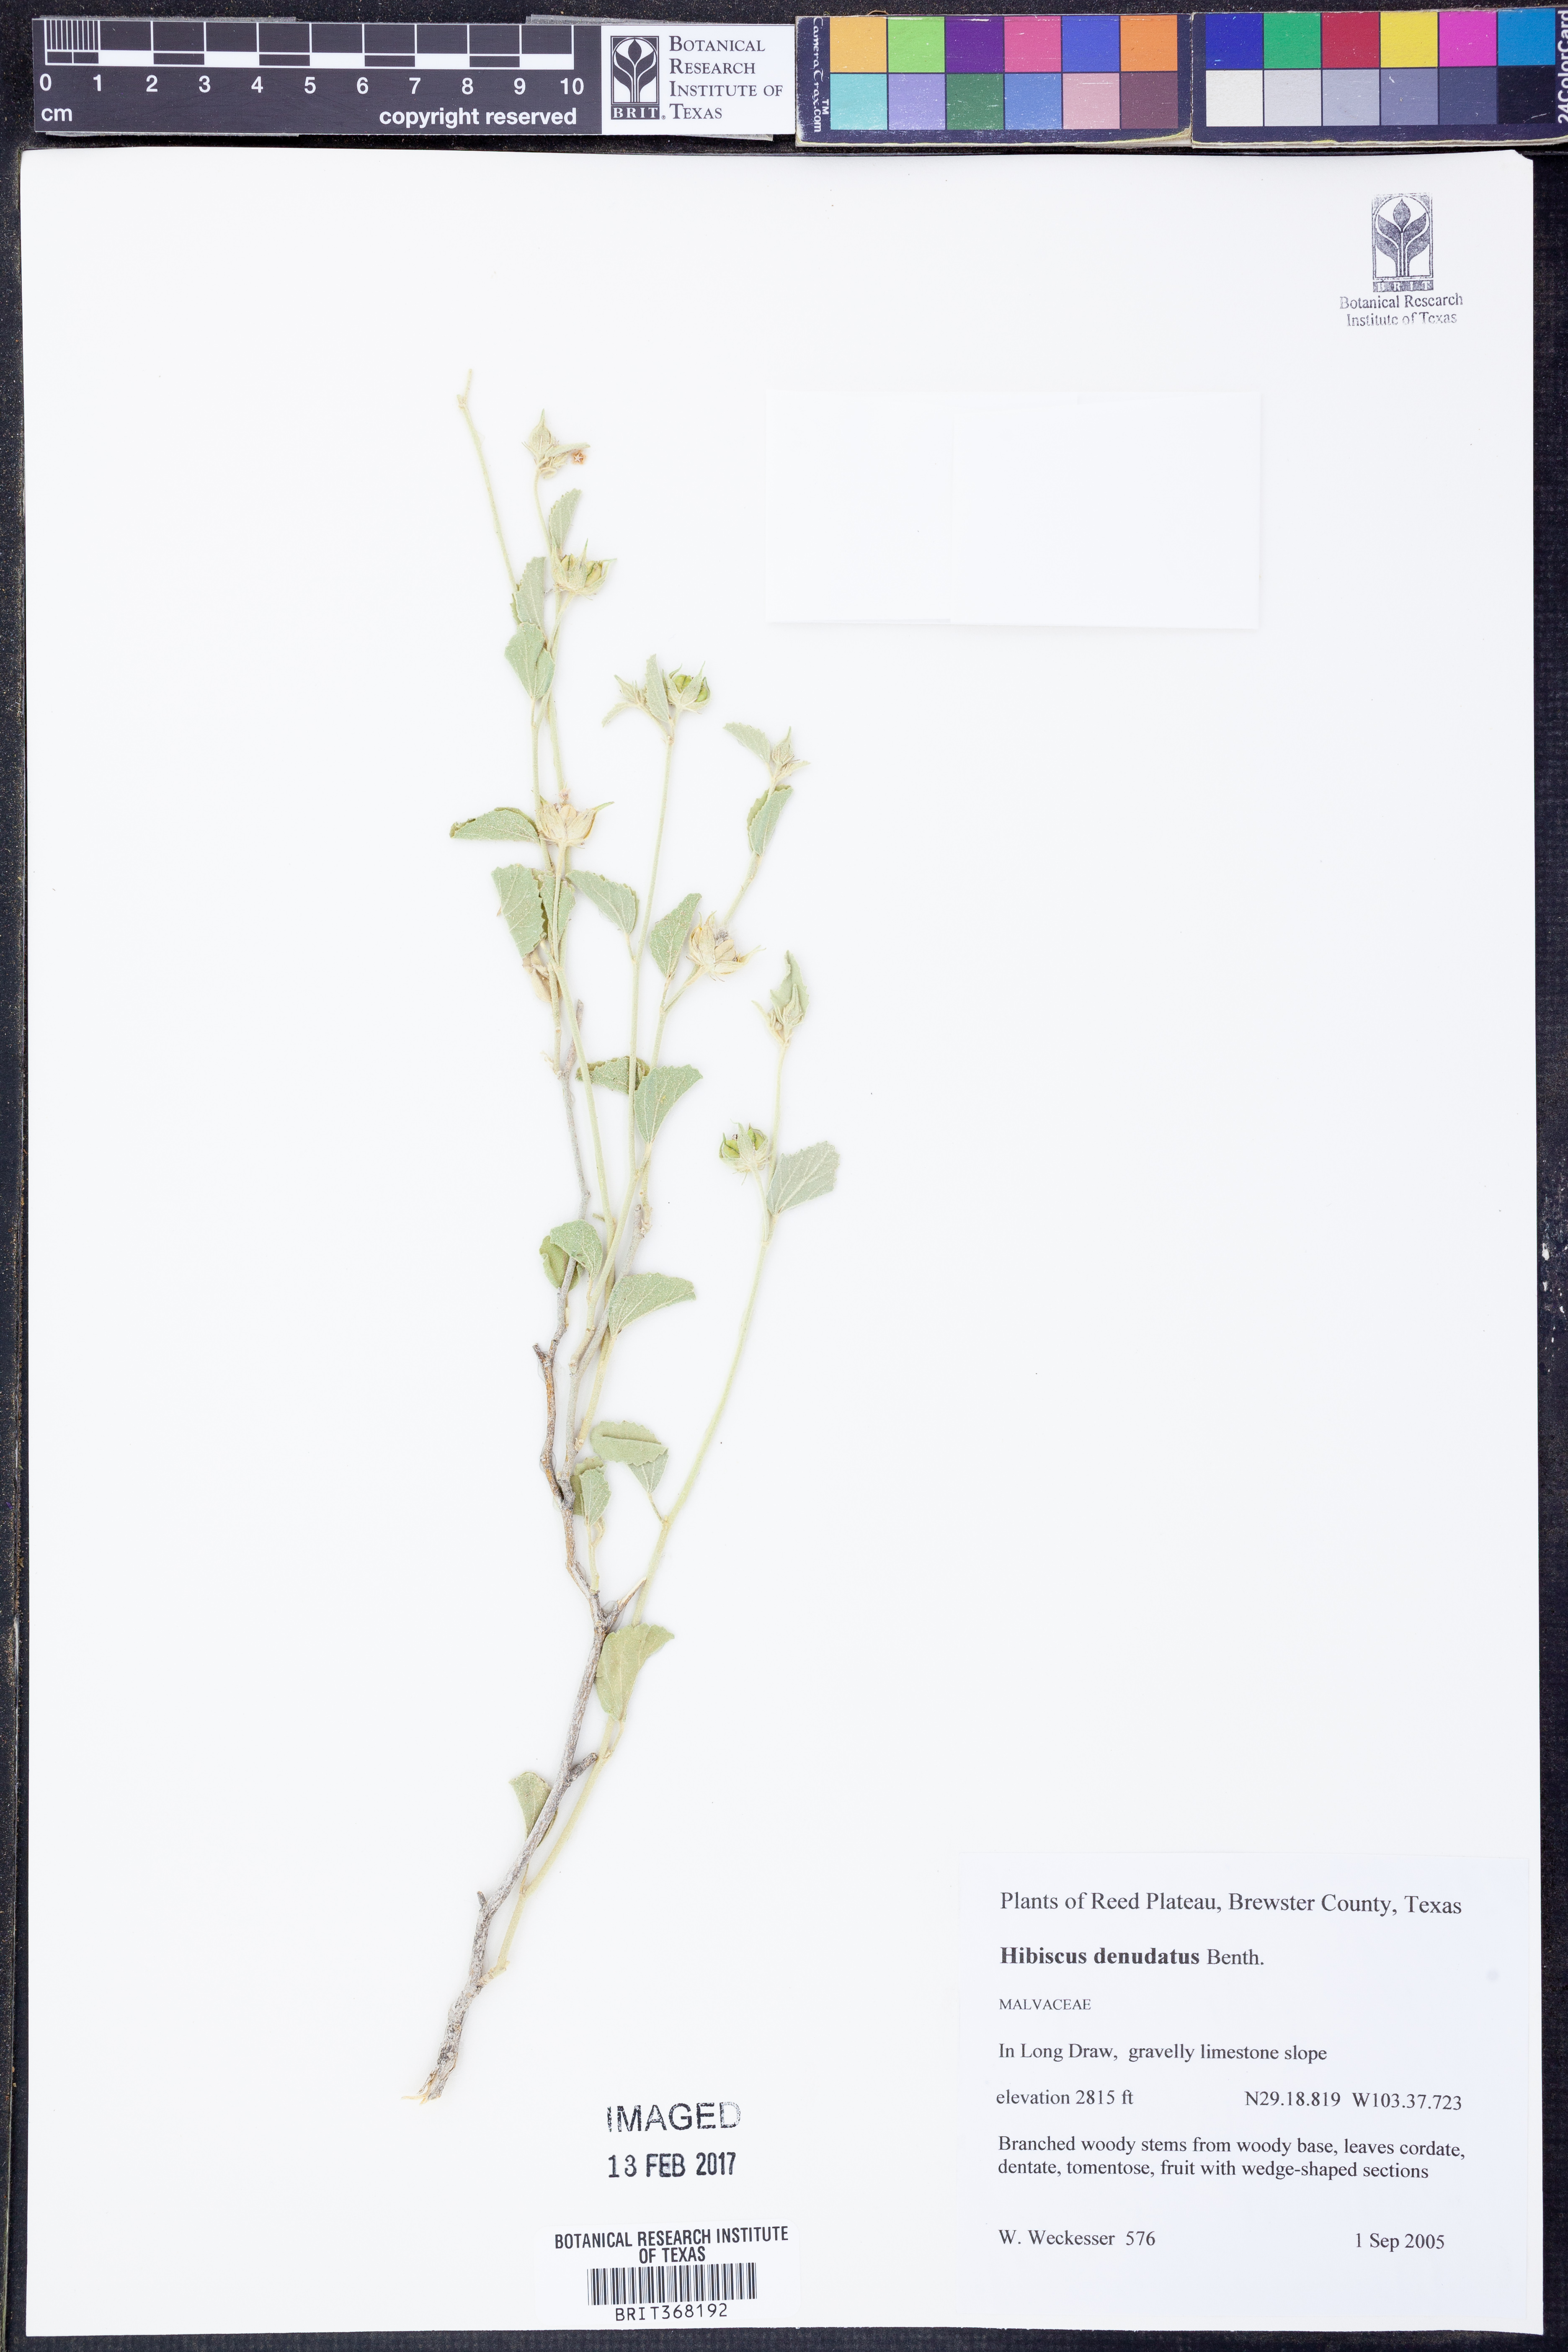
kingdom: Plantae
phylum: Tracheophyta
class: Magnoliopsida
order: Malvales
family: Malvaceae
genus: Hibiscus
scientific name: Hibiscus denudatus
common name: Paleface
